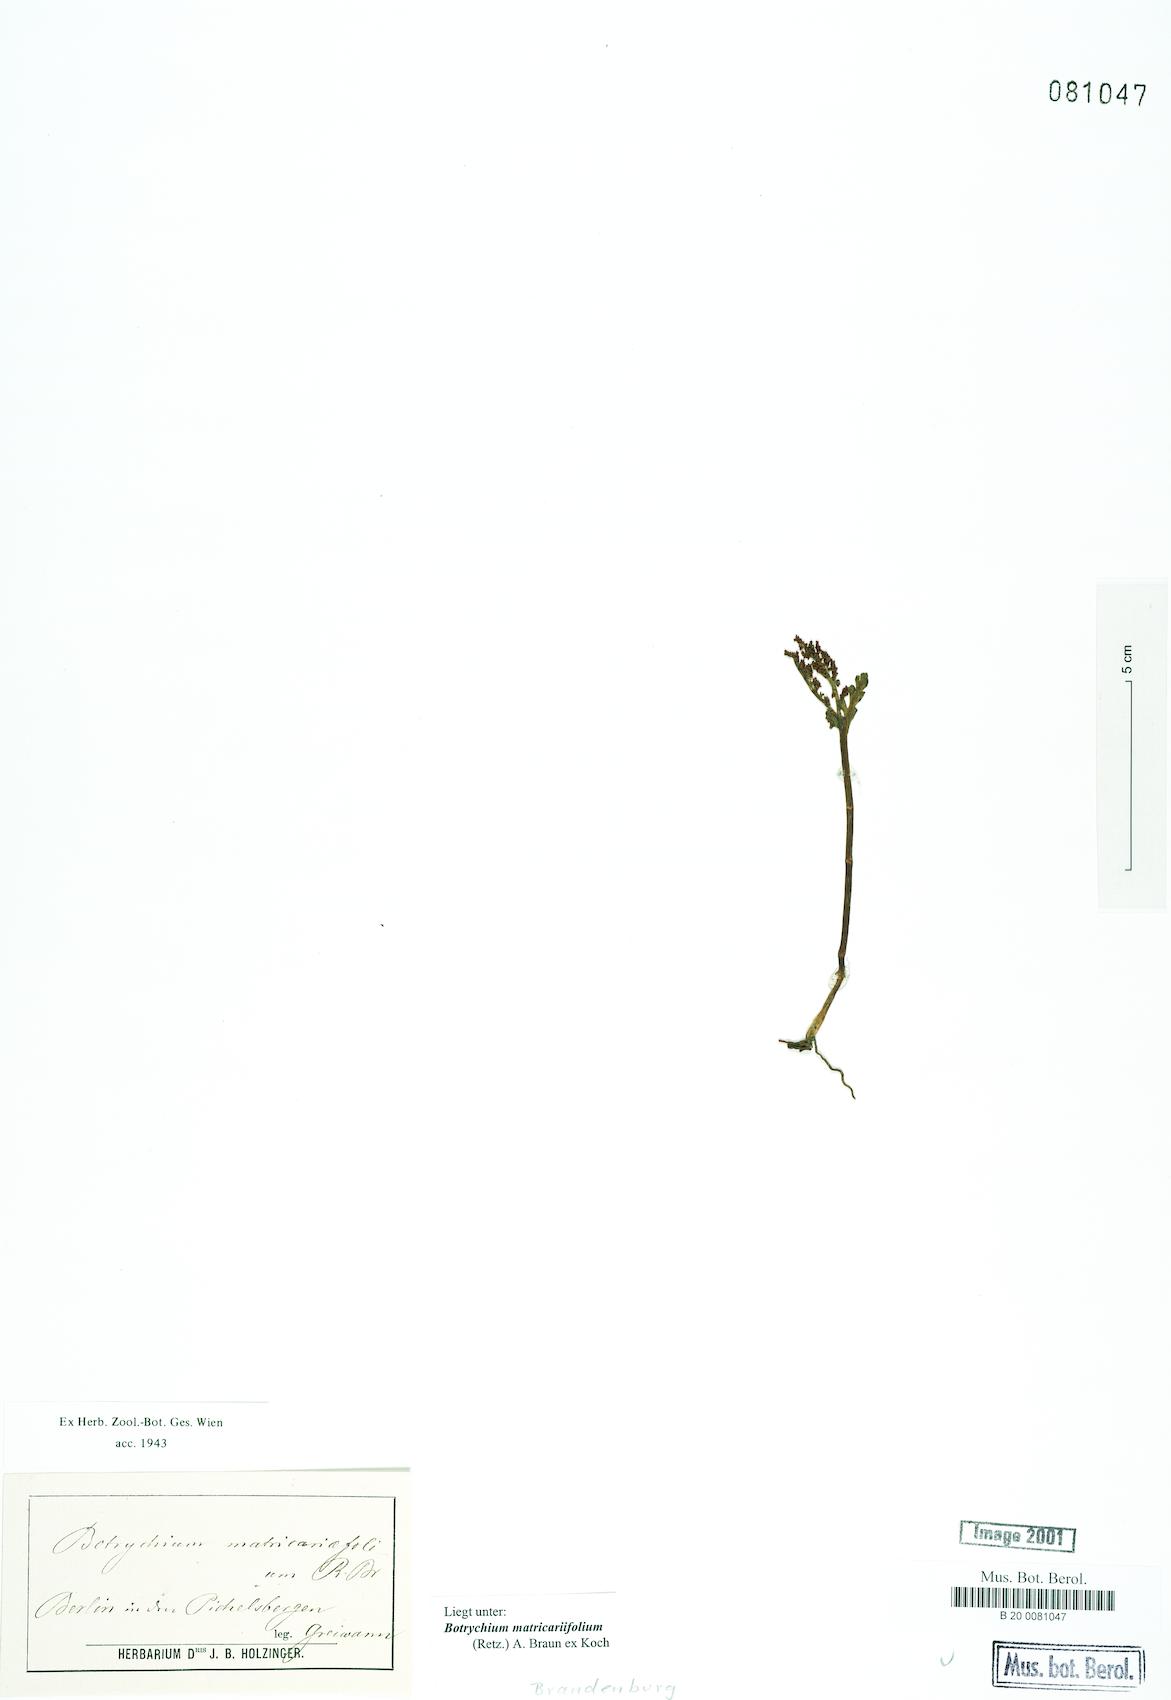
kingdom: Plantae
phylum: Tracheophyta
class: Polypodiopsida
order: Ophioglossales
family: Ophioglossaceae
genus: Botrychium
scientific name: Botrychium matricariifolium
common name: Branched moonwort
